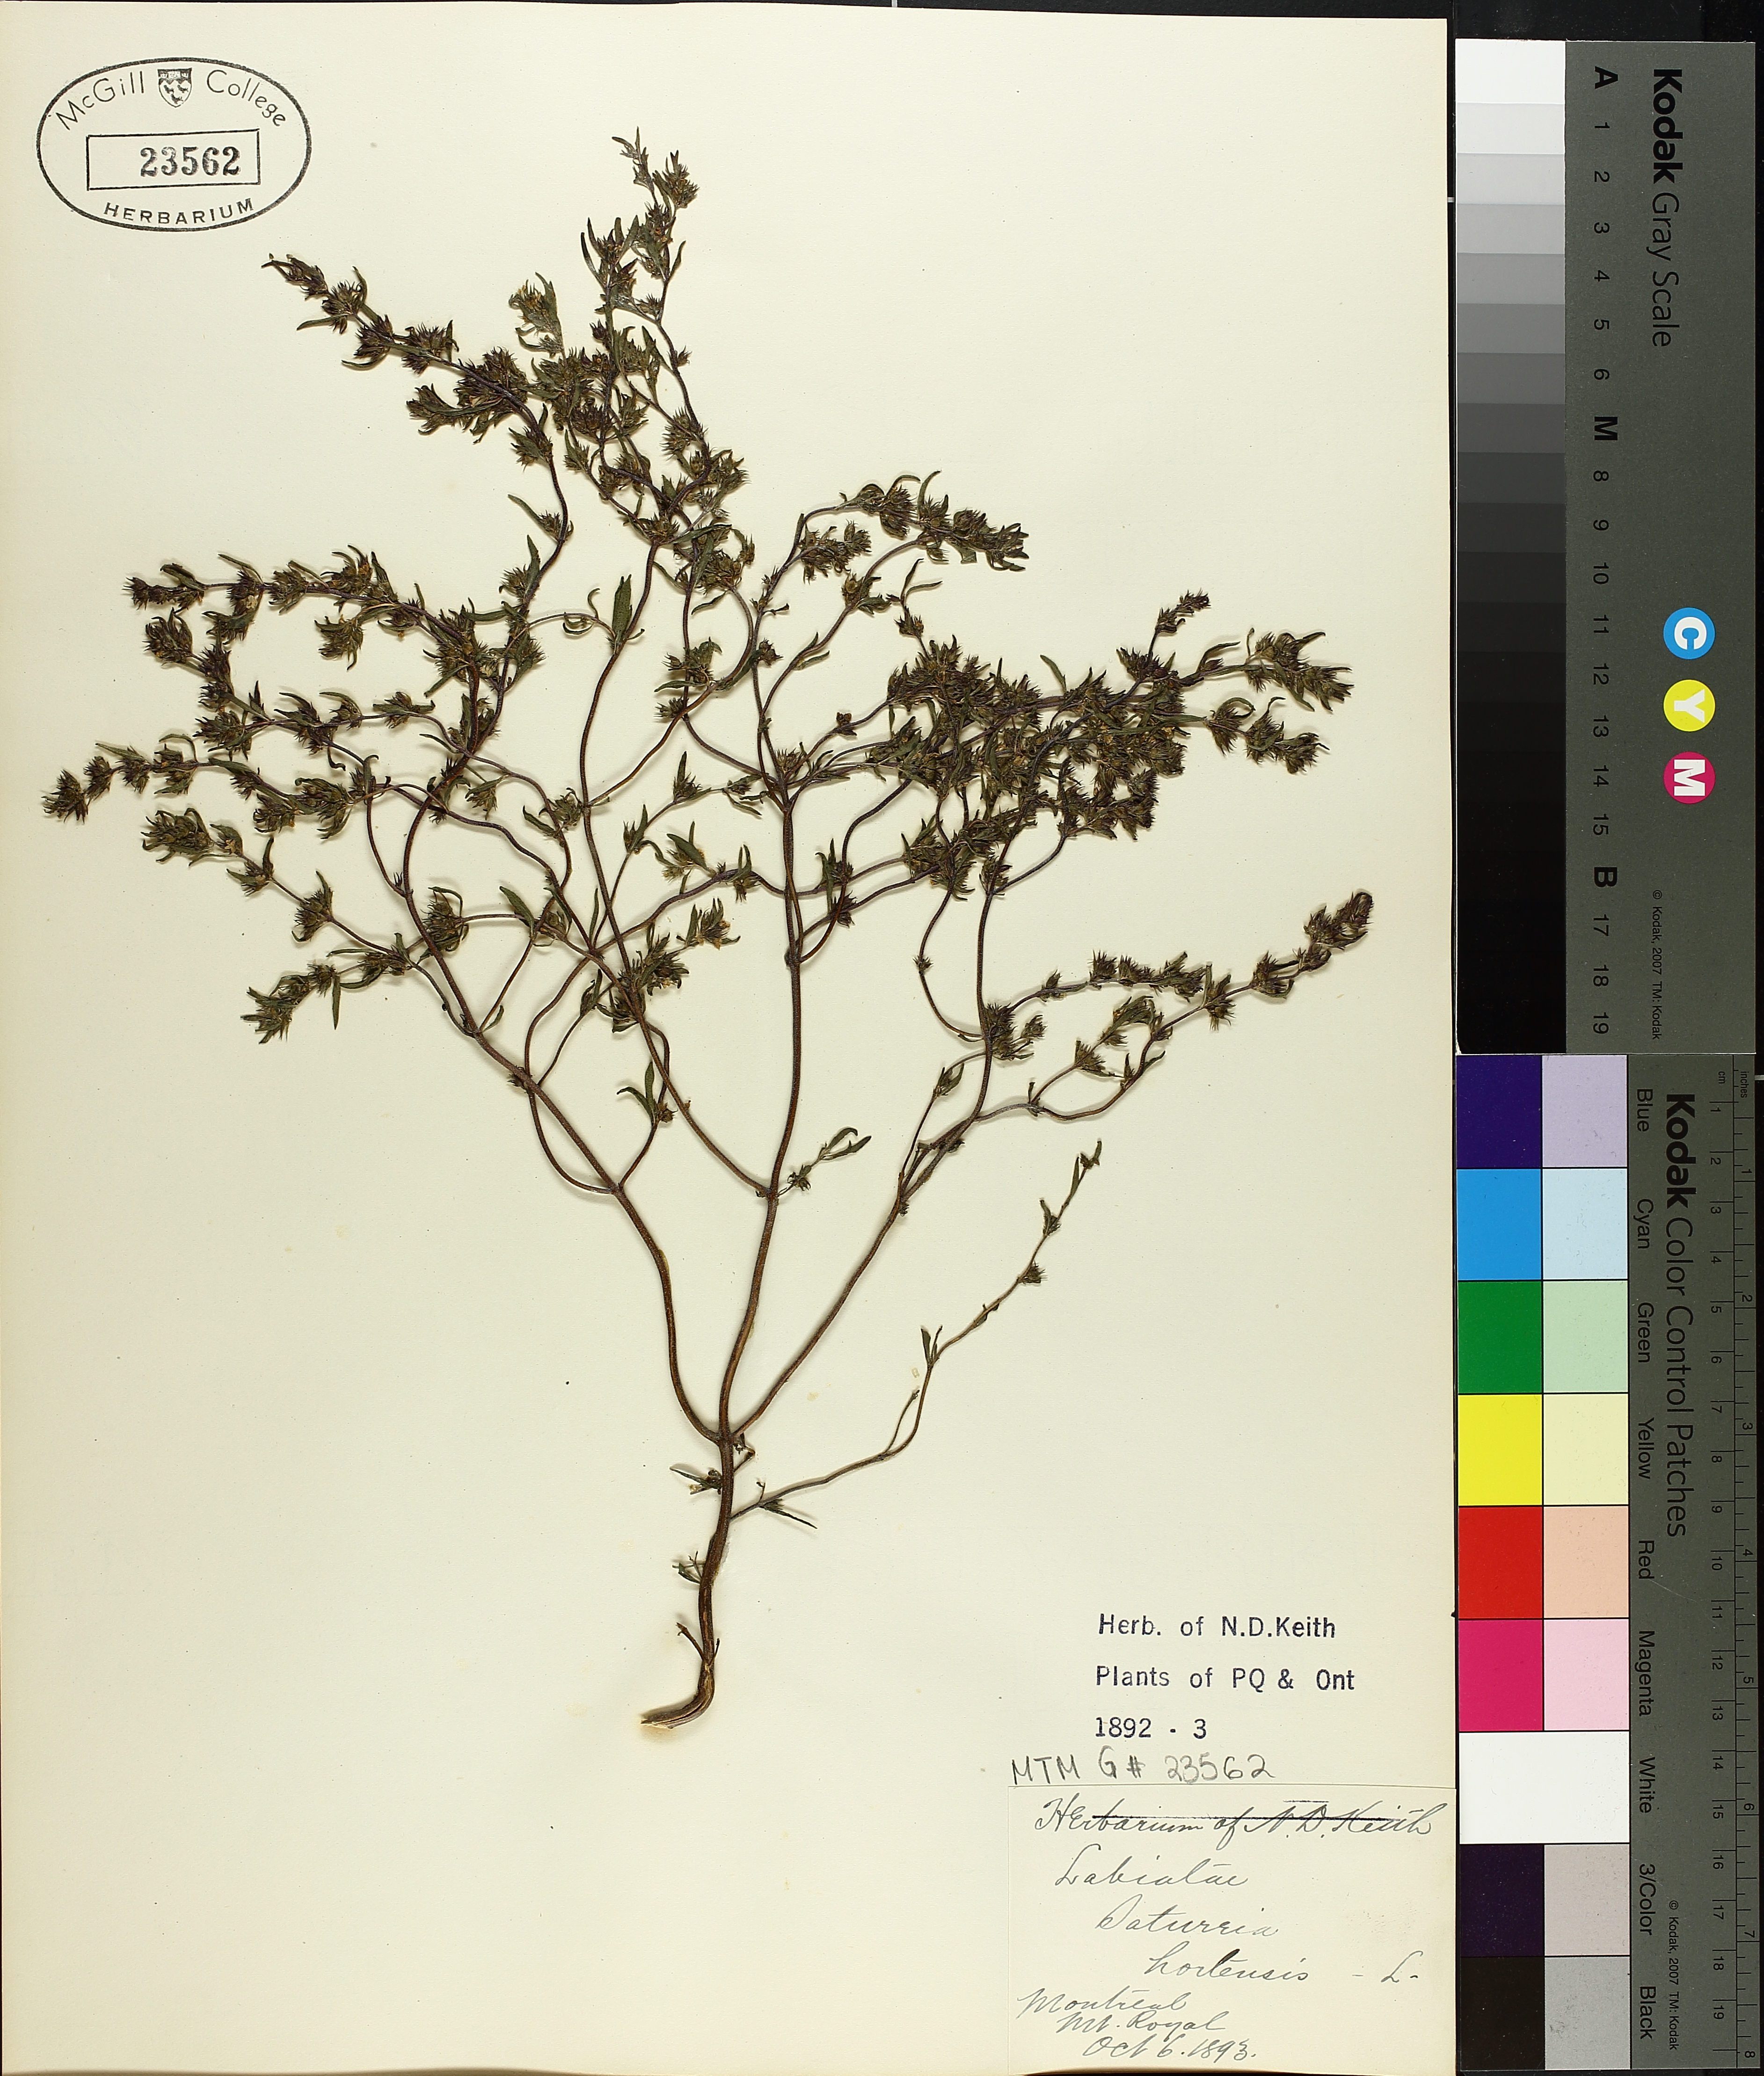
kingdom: Plantae
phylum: Tracheophyta
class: Magnoliopsida
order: Lamiales
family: Lamiaceae
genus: Satureja
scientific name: Satureja hortensis
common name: Summer savory
